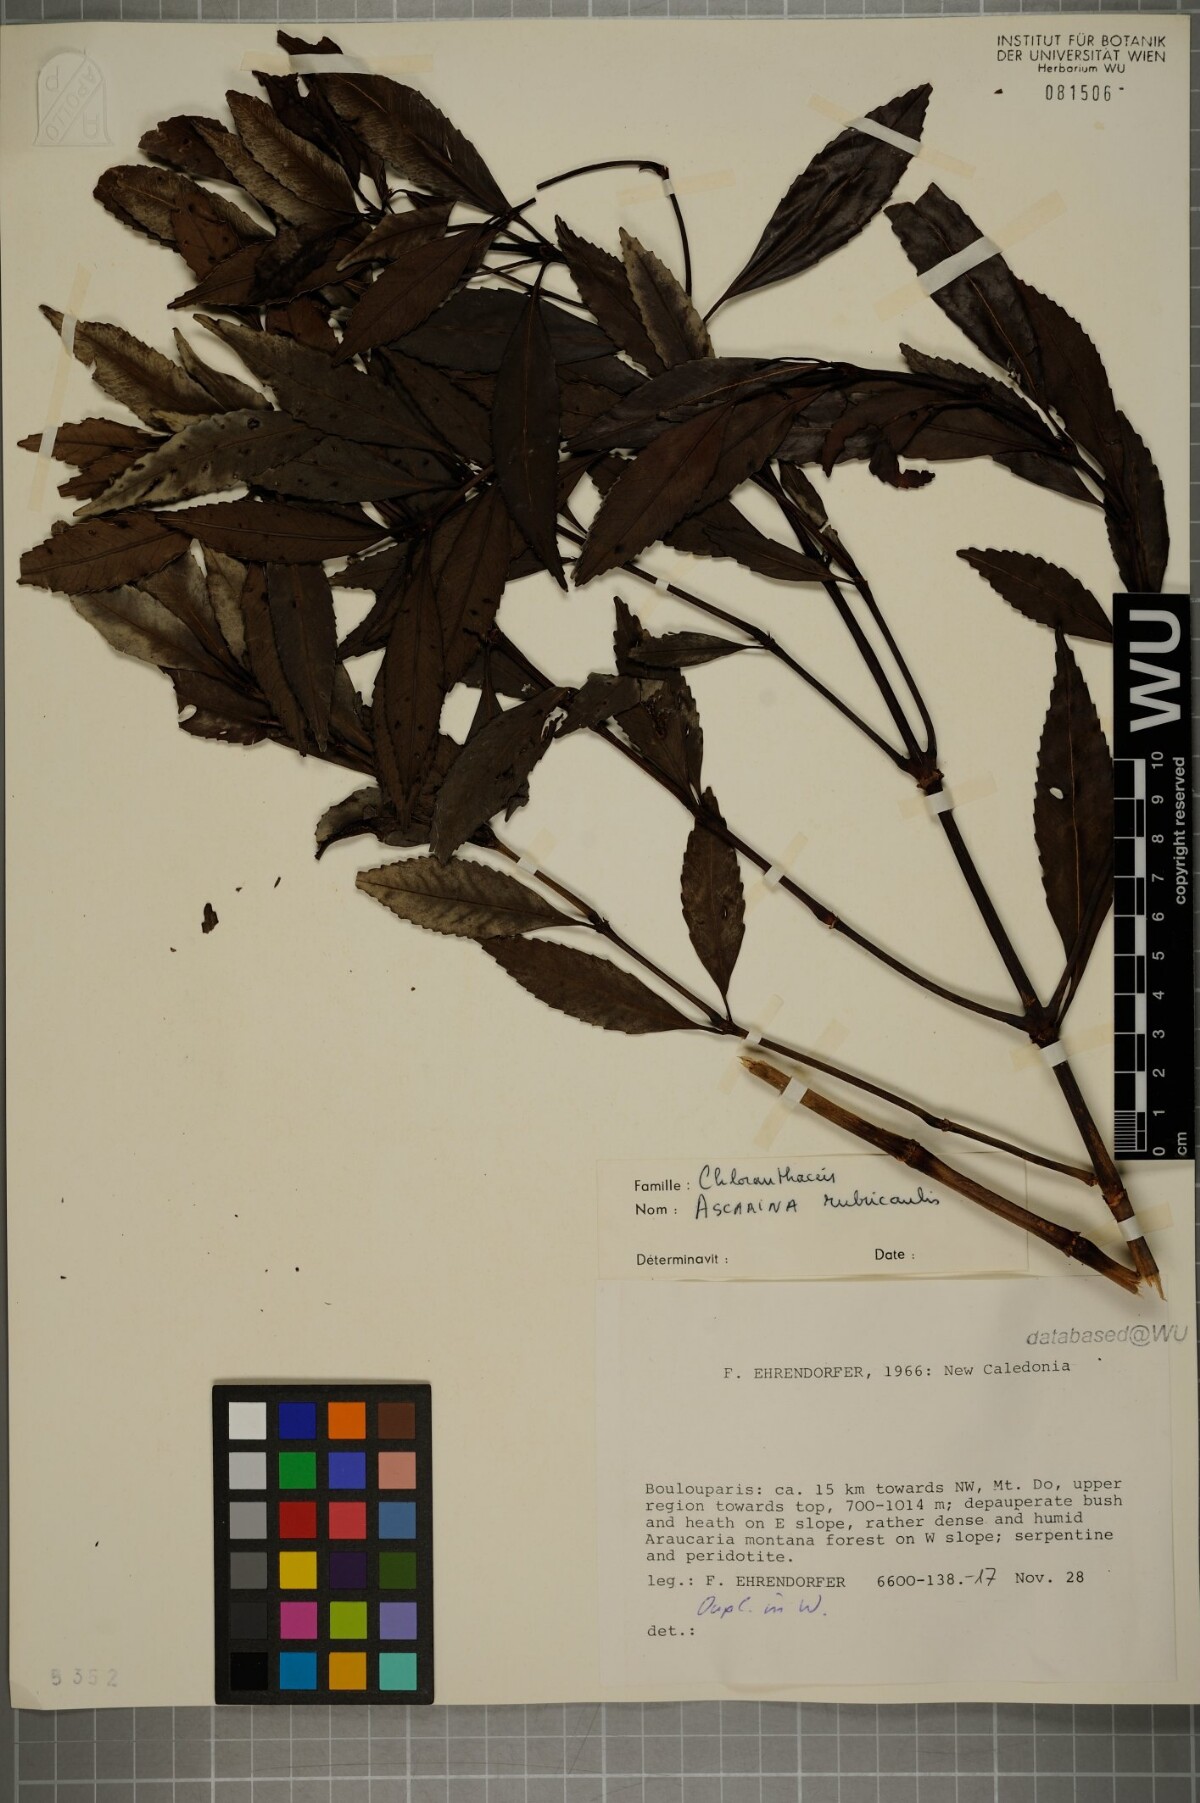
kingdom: Plantae
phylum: Tracheophyta
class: Magnoliopsida
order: Chloranthales
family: Chloranthaceae
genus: Ascarina
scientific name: Ascarina rubricaulis
